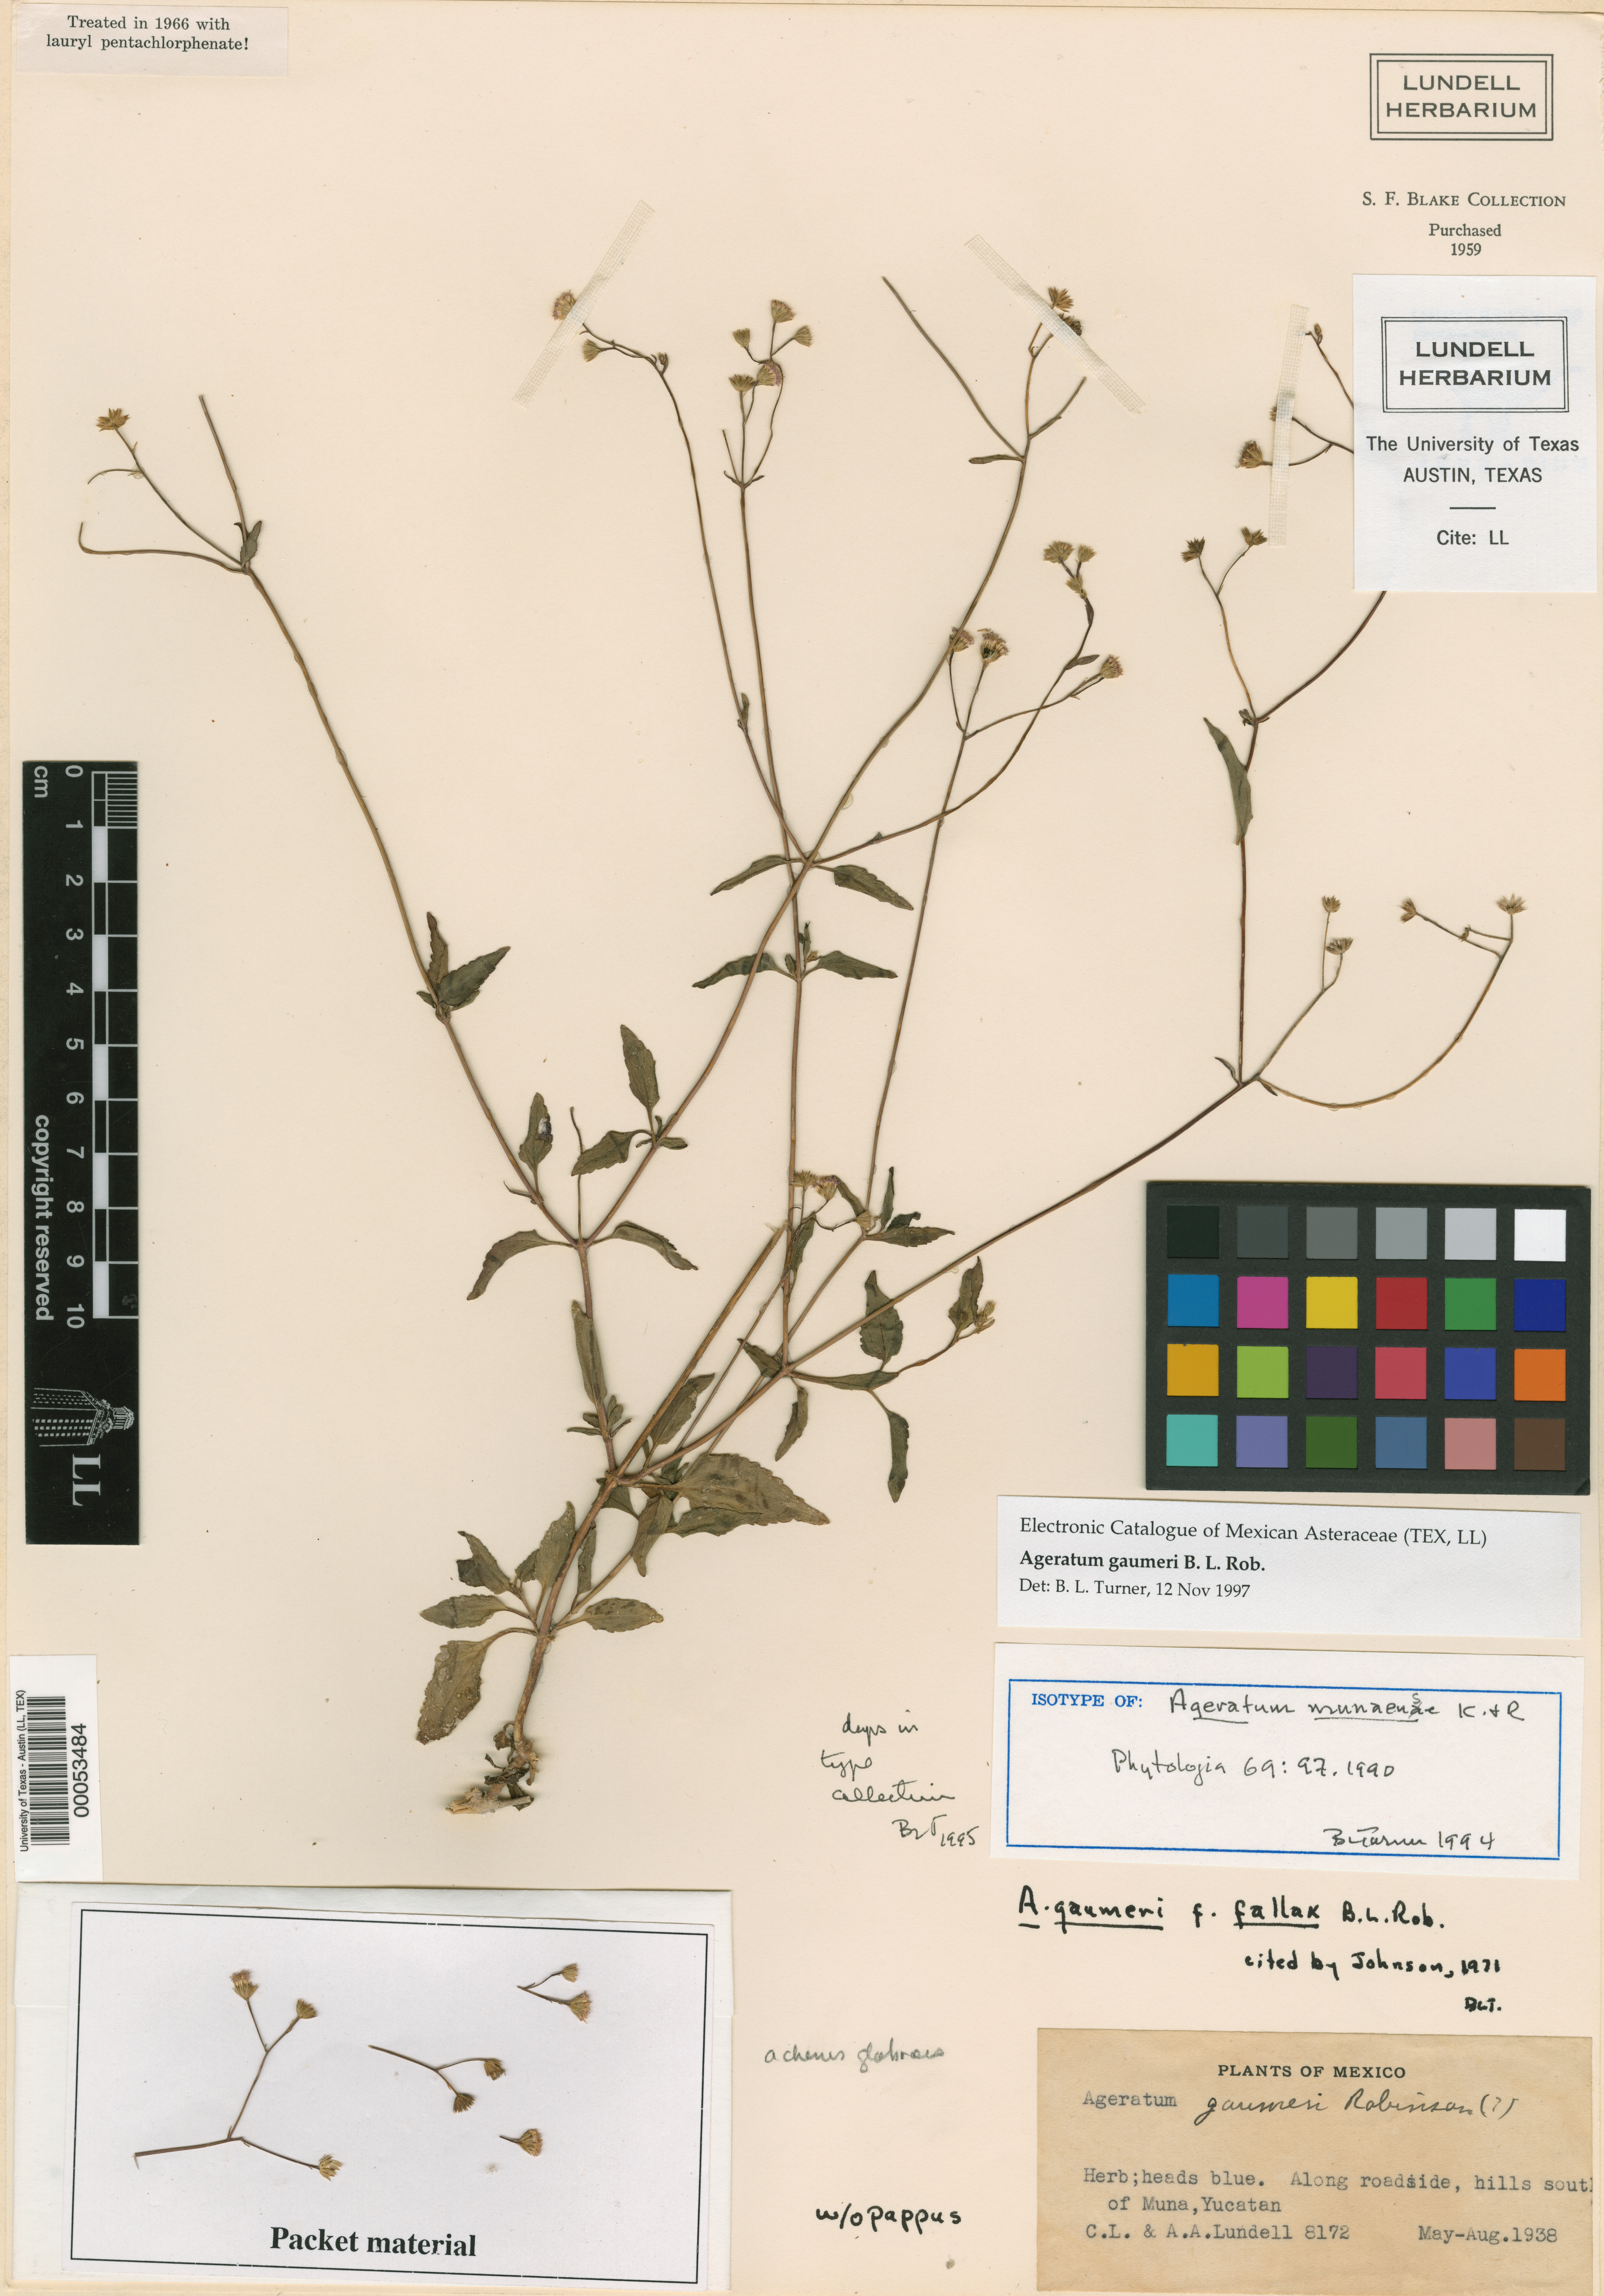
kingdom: Plantae
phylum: Tracheophyta
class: Magnoliopsida
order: Asterales
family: Asteraceae
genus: Ageratum
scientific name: Ageratum gaumeri
